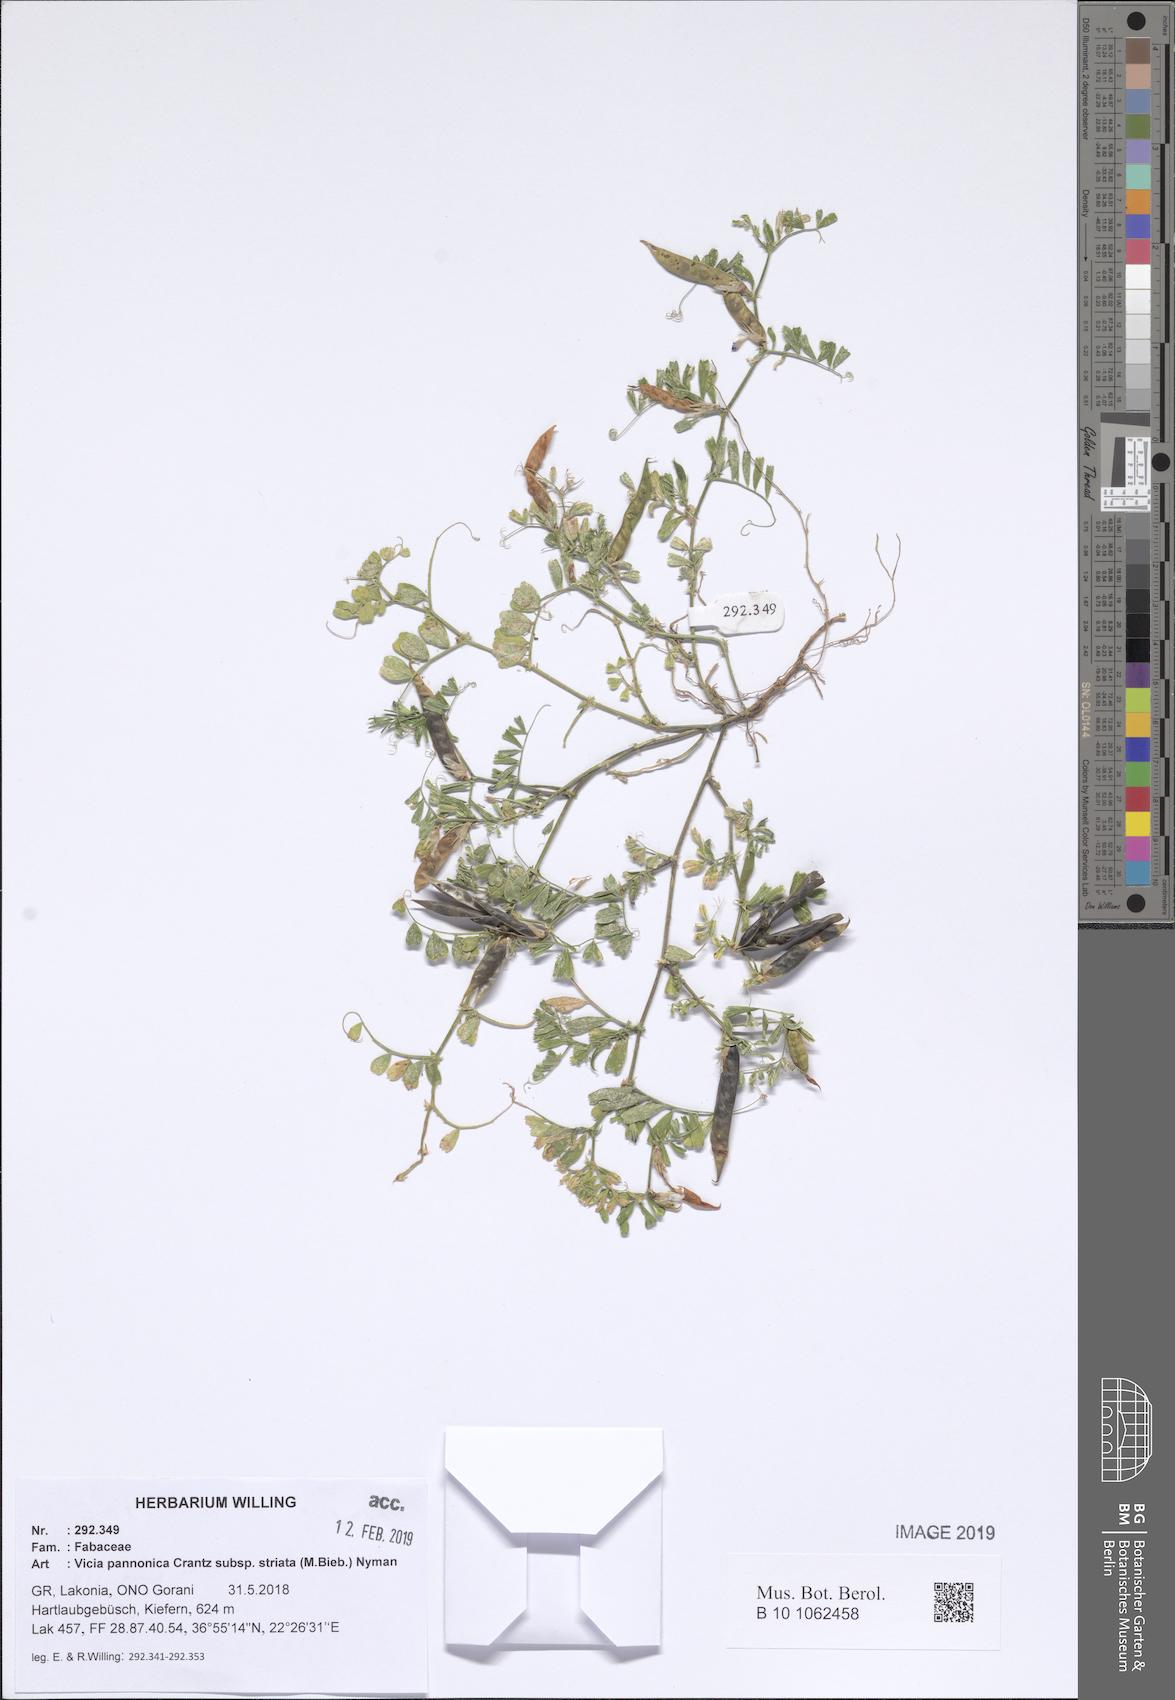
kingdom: Plantae
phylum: Tracheophyta
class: Magnoliopsida
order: Fabales
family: Fabaceae
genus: Vicia
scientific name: Vicia pannonica
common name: Hungarian vetch
